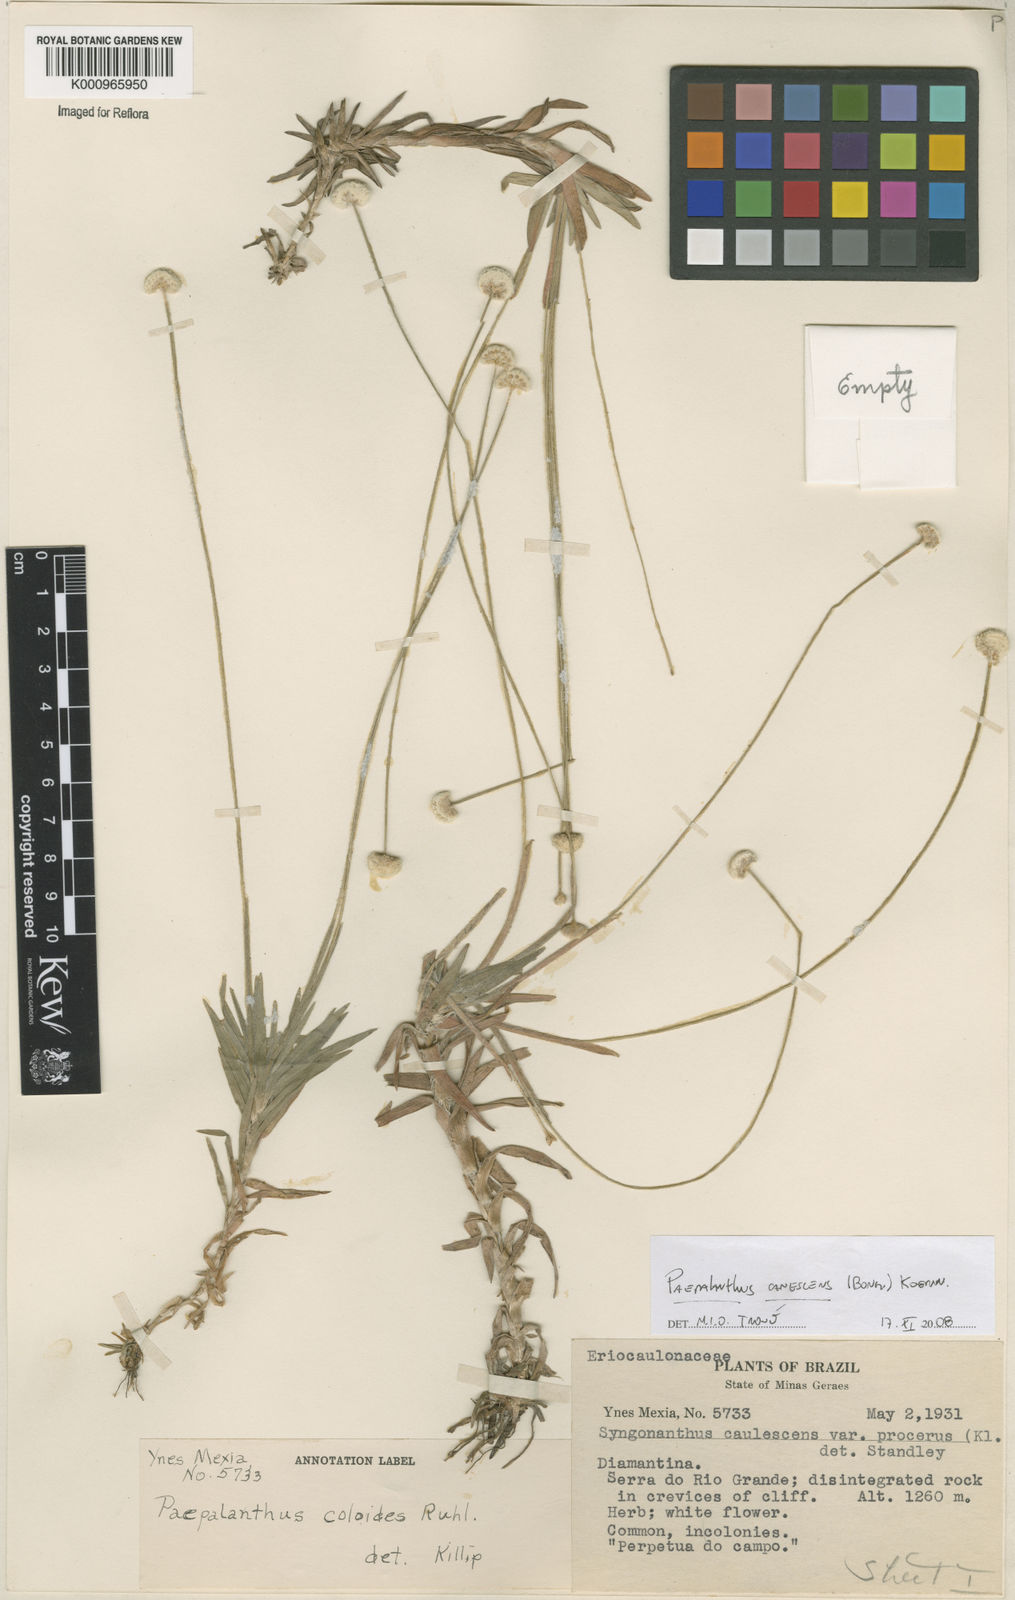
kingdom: Plantae
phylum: Tracheophyta
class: Liliopsida
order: Poales
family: Eriocaulaceae
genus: Paepalanthus
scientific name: Paepalanthus
